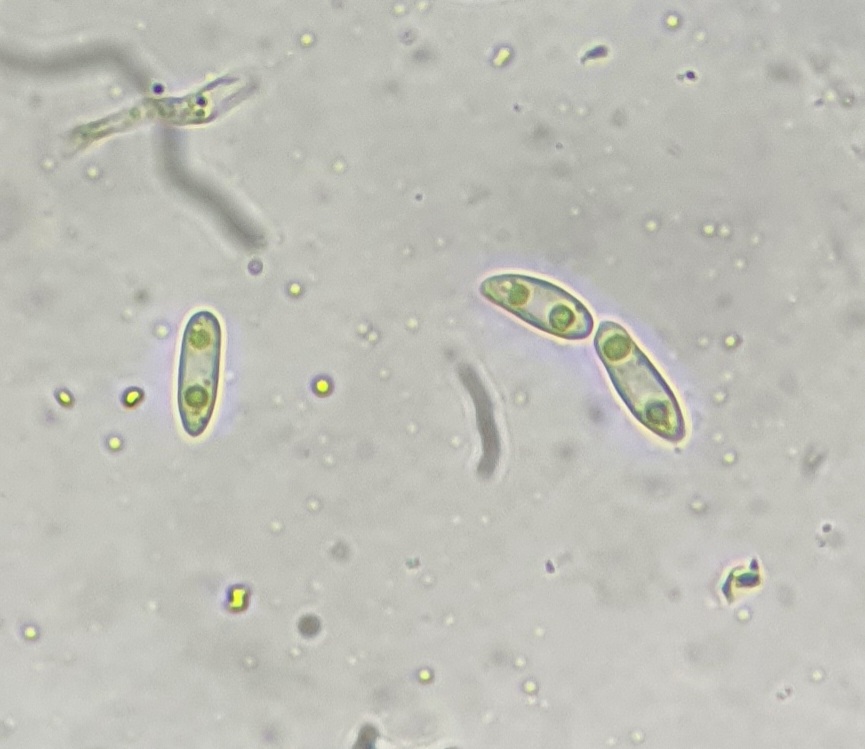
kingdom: Fungi
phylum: Ascomycota
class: Sordariomycetes
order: Diaporthales
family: Diaporthaceae
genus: Diaporthe
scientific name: Diaporthe samaricola
